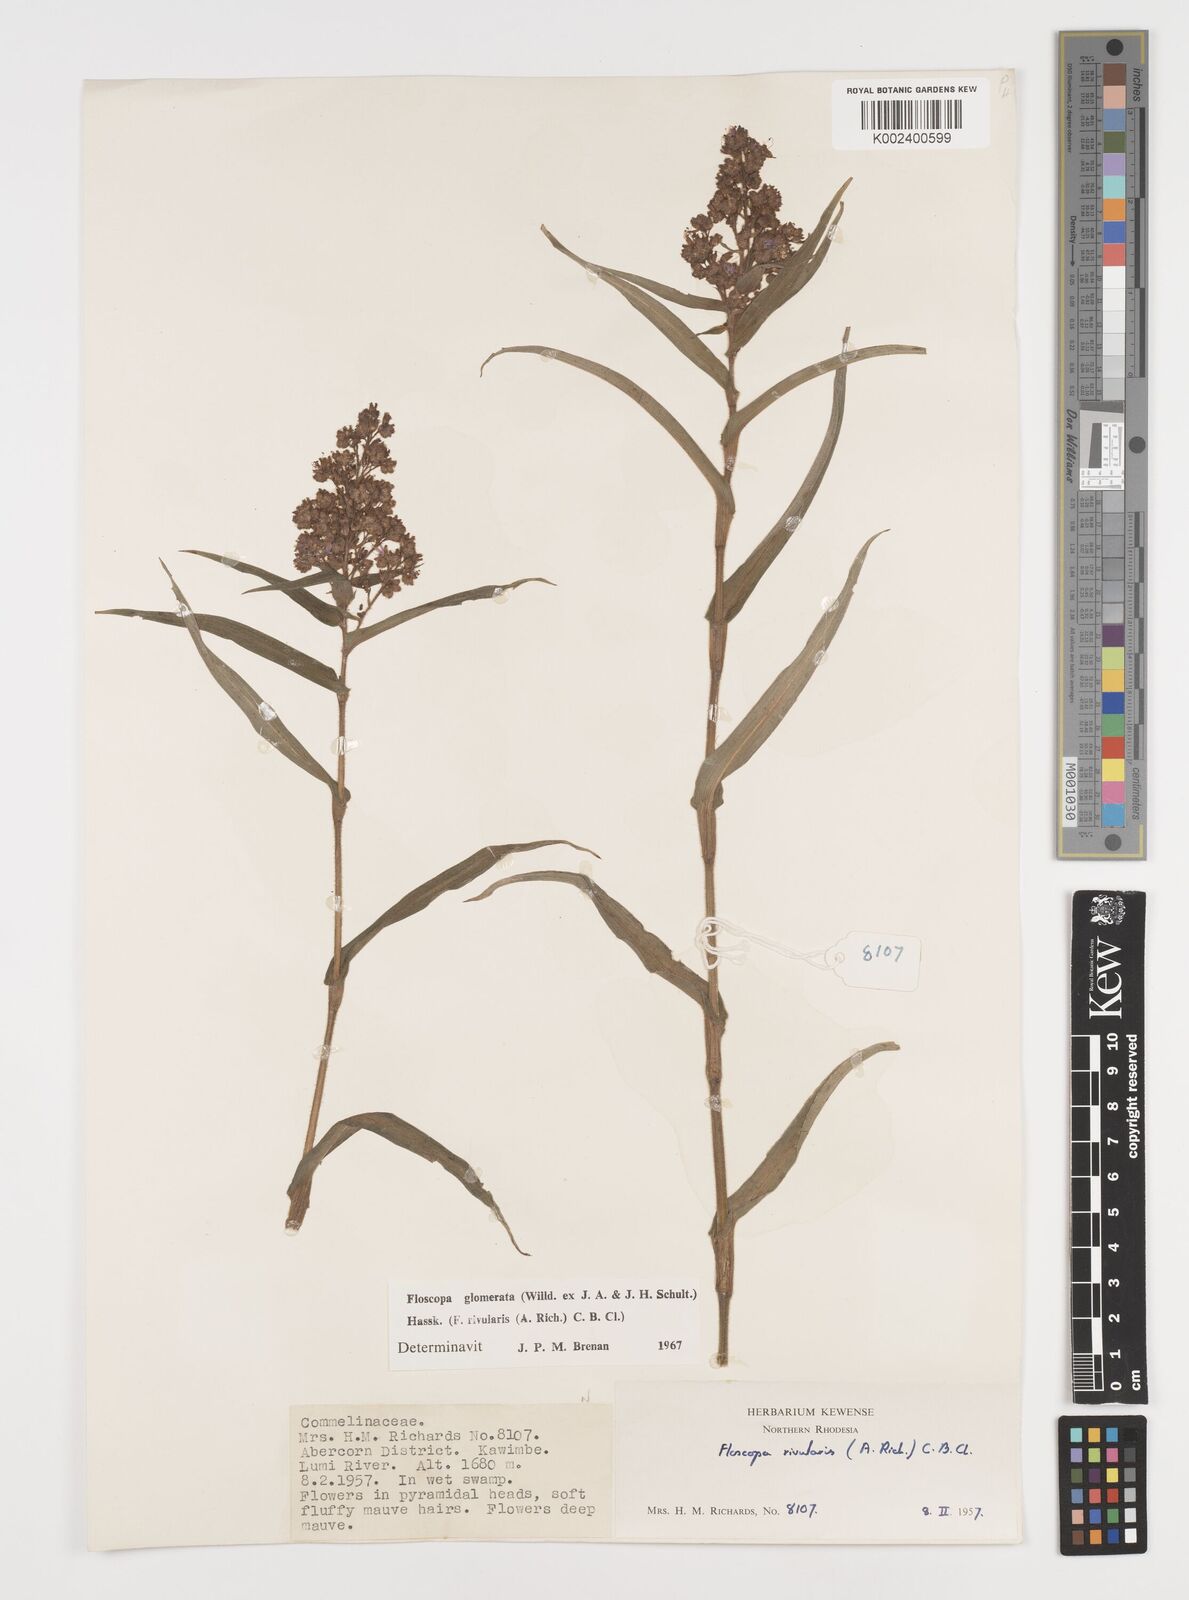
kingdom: Plantae
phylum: Tracheophyta
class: Liliopsida
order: Commelinales
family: Commelinaceae
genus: Floscopa
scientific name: Floscopa glomerata
